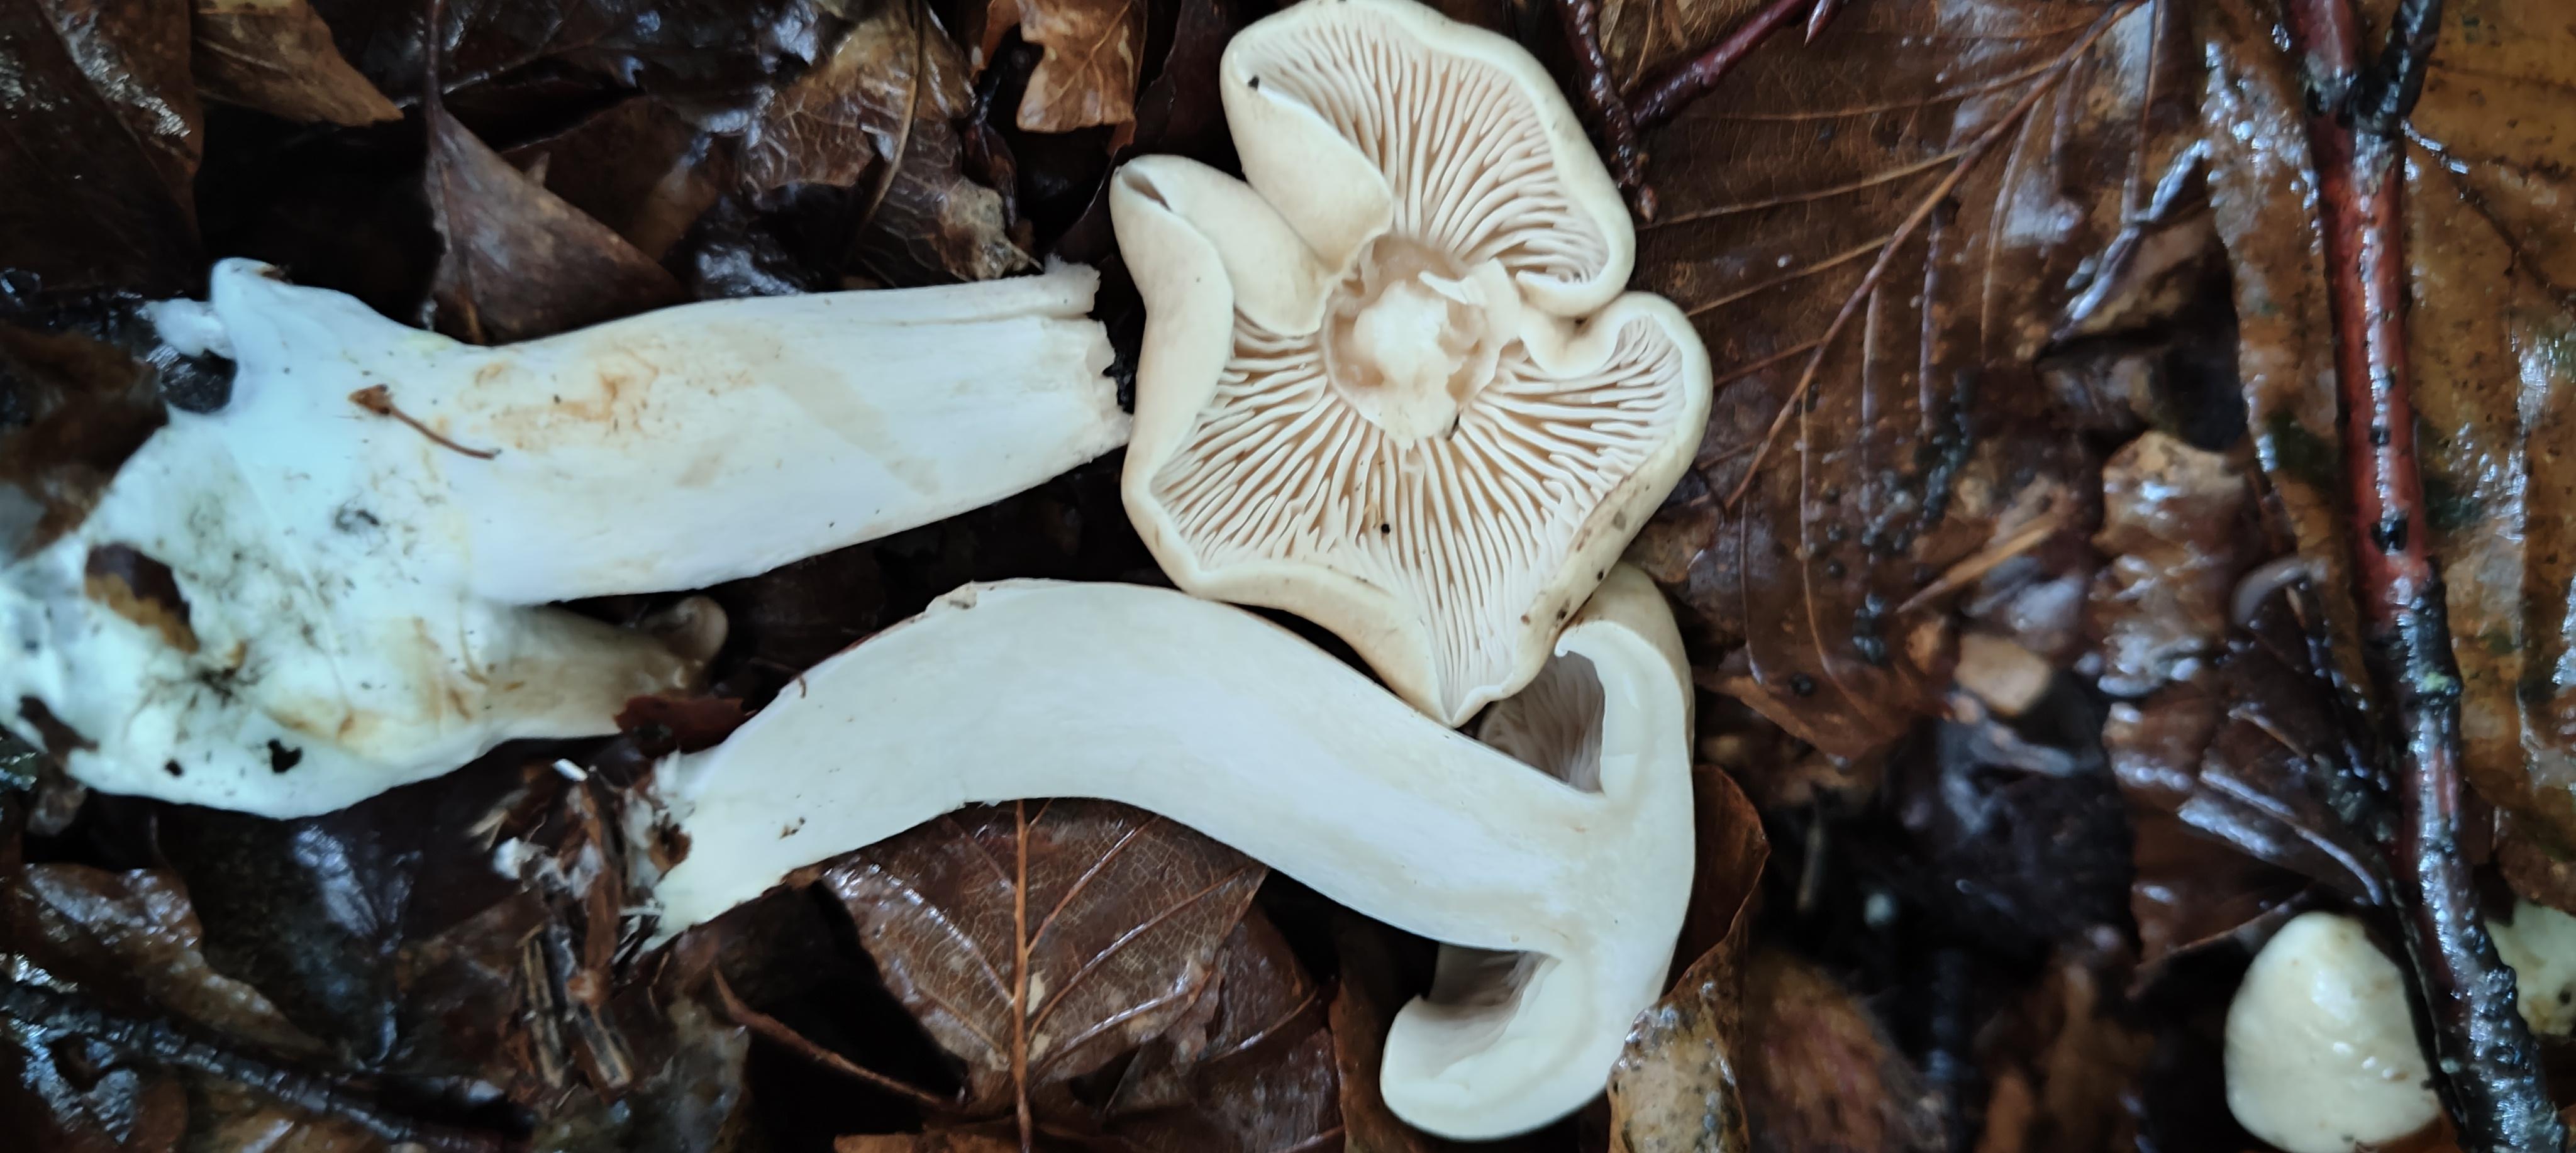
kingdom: Fungi
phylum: Basidiomycota
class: Agaricomycetes
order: Agaricales
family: Tricholomataceae
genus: Tricholoma
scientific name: Tricholoma lascivum
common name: stinkende ridderhat
